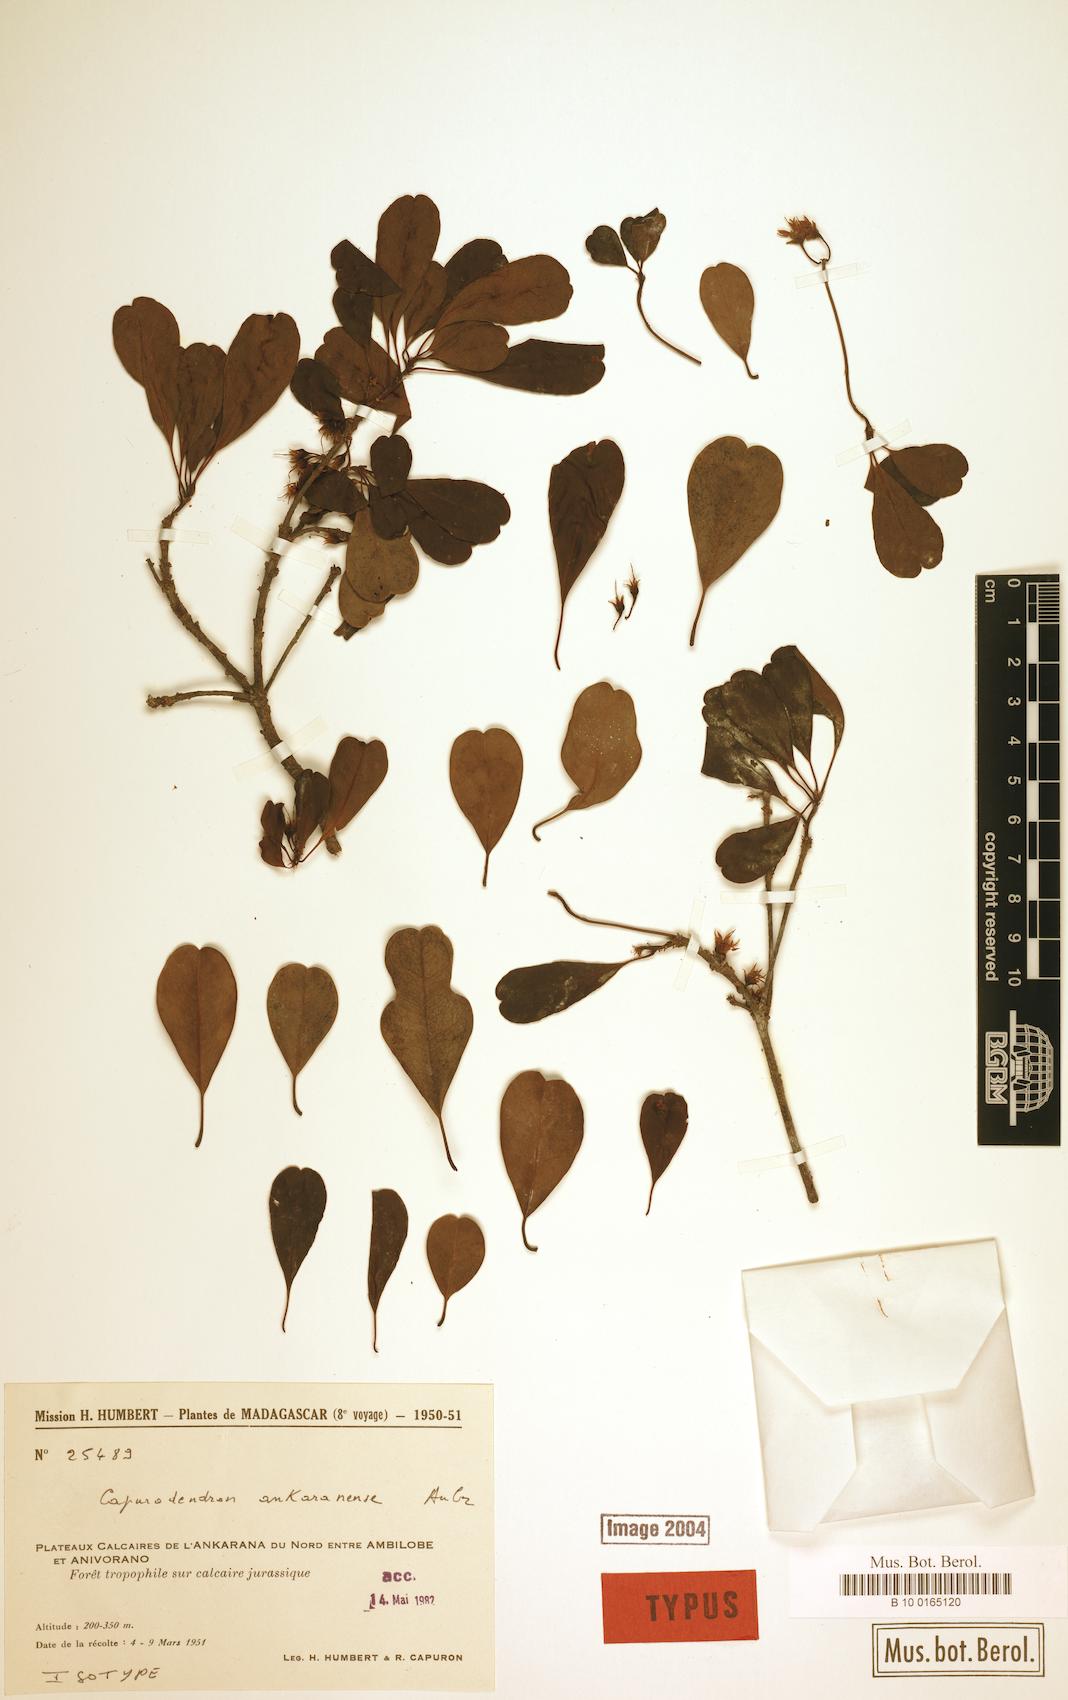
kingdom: Plantae
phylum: Tracheophyta
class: Magnoliopsida
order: Ericales
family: Sapotaceae
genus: Capurodendron
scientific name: Capurodendron ankaranense
